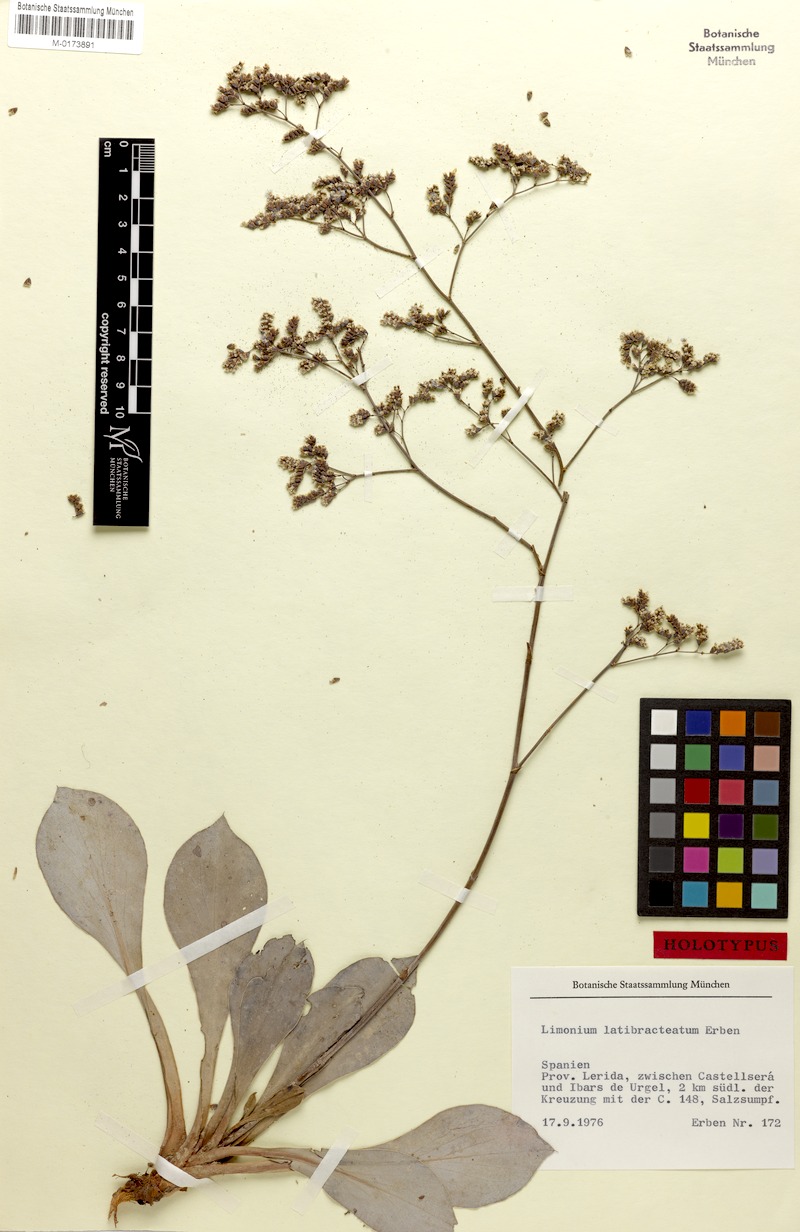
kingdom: Plantae
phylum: Tracheophyta
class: Magnoliopsida
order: Caryophyllales
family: Plumbaginaceae
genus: Limonium
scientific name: Limonium latibracteatum
